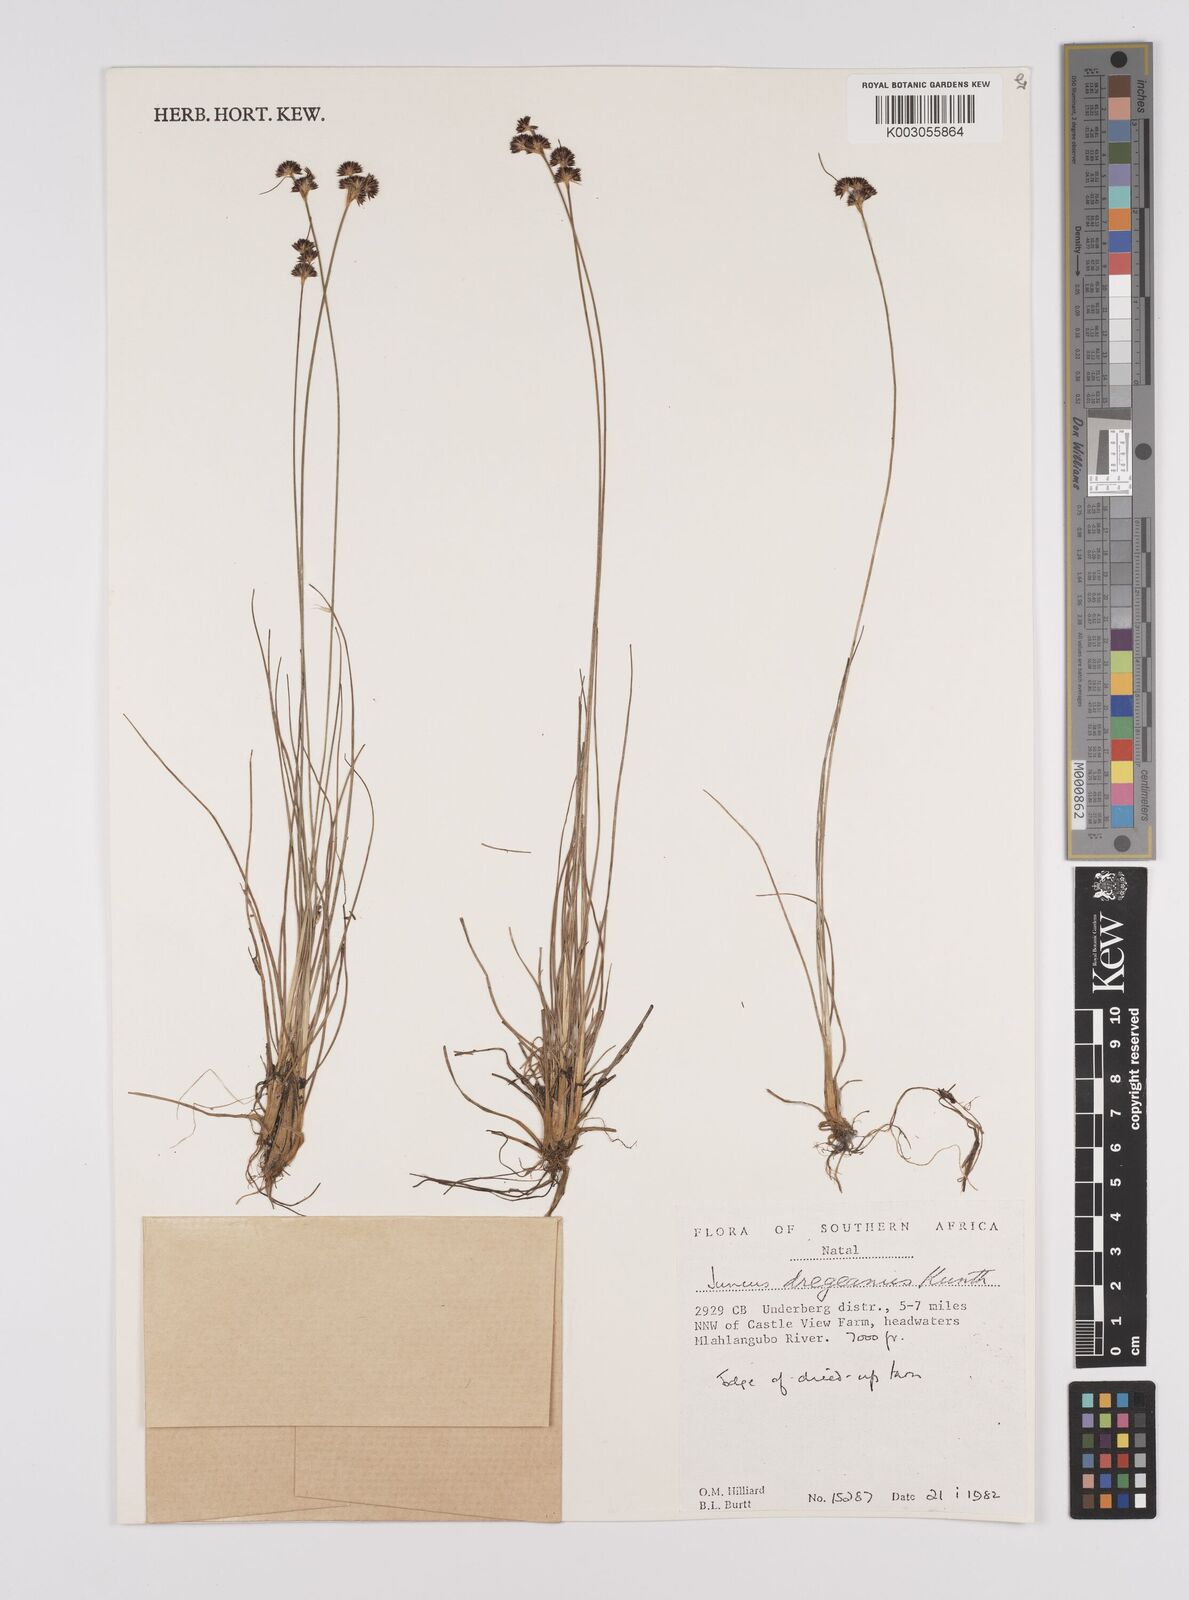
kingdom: Plantae
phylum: Tracheophyta
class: Liliopsida
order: Poales
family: Juncaceae
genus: Juncus
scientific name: Juncus dregeanus
